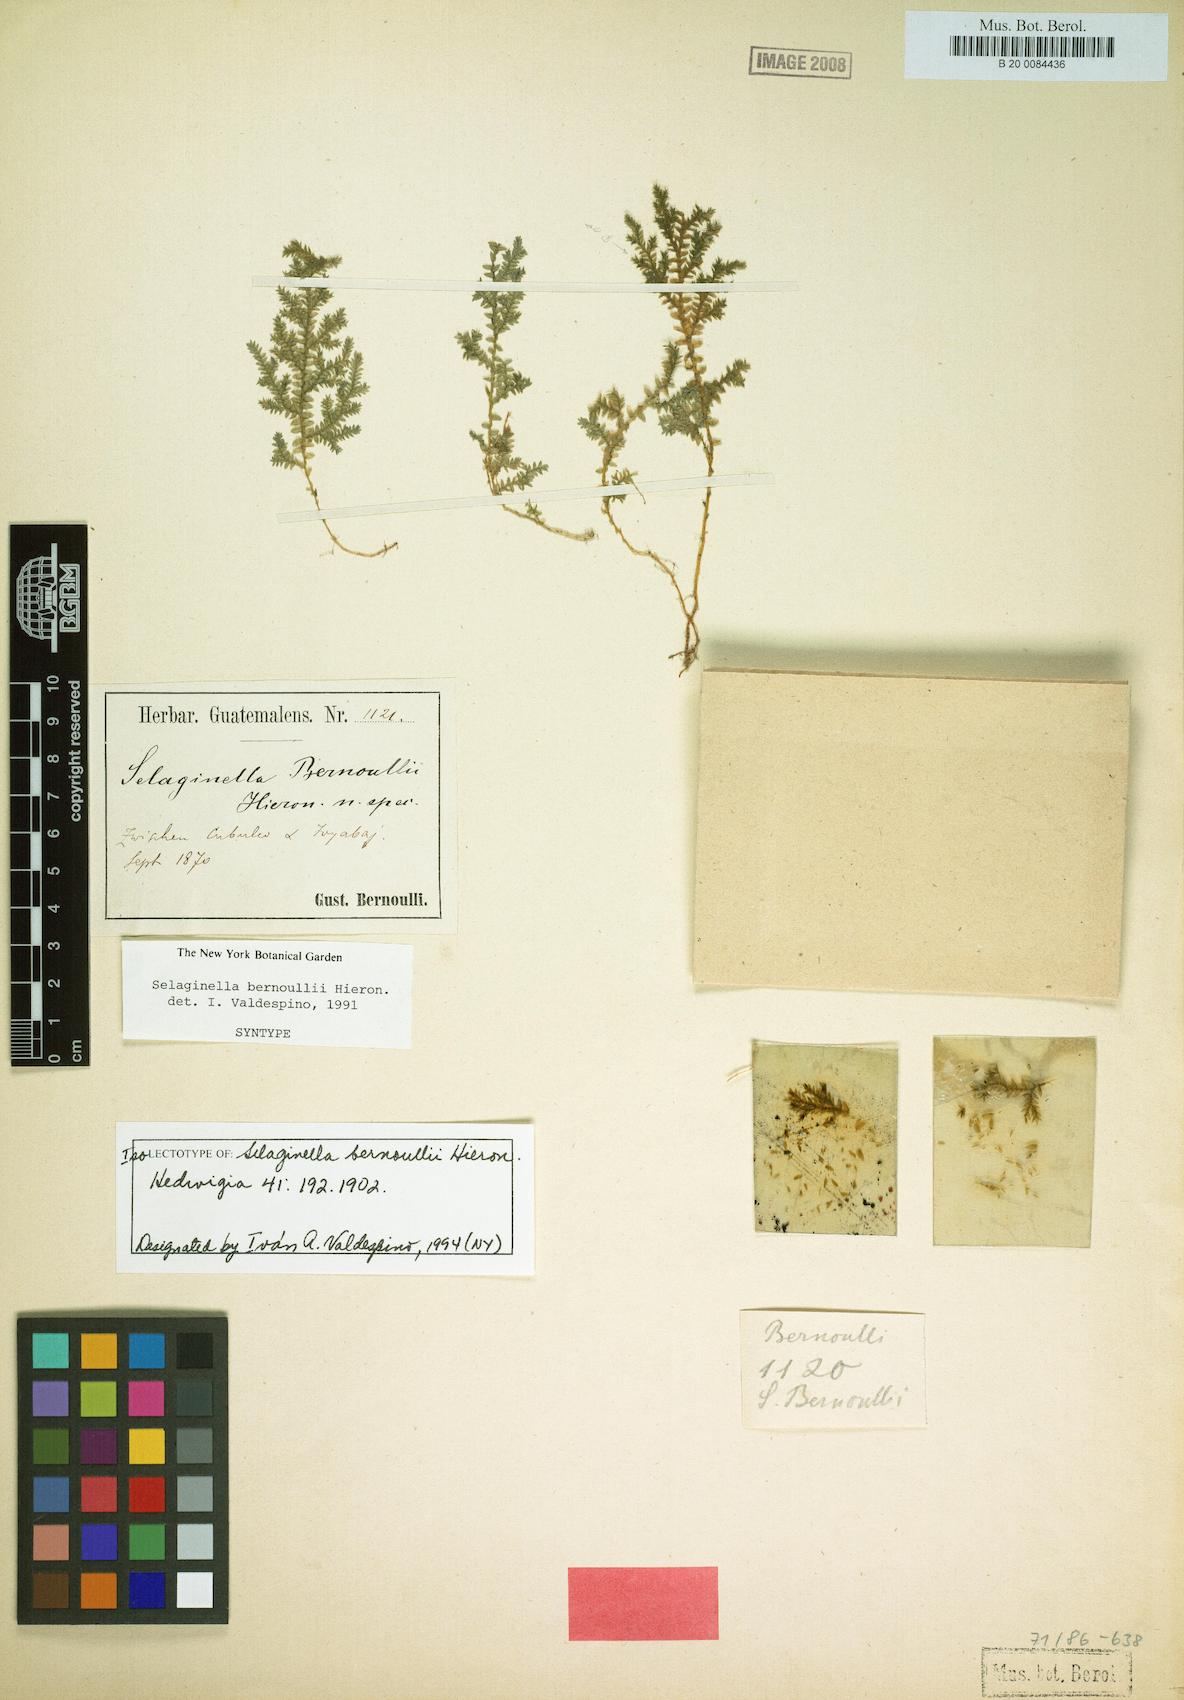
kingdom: Plantae
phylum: Tracheophyta
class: Lycopodiopsida
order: Selaginellales
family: Selaginellaceae
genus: Selaginella
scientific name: Selaginella bernoullii
